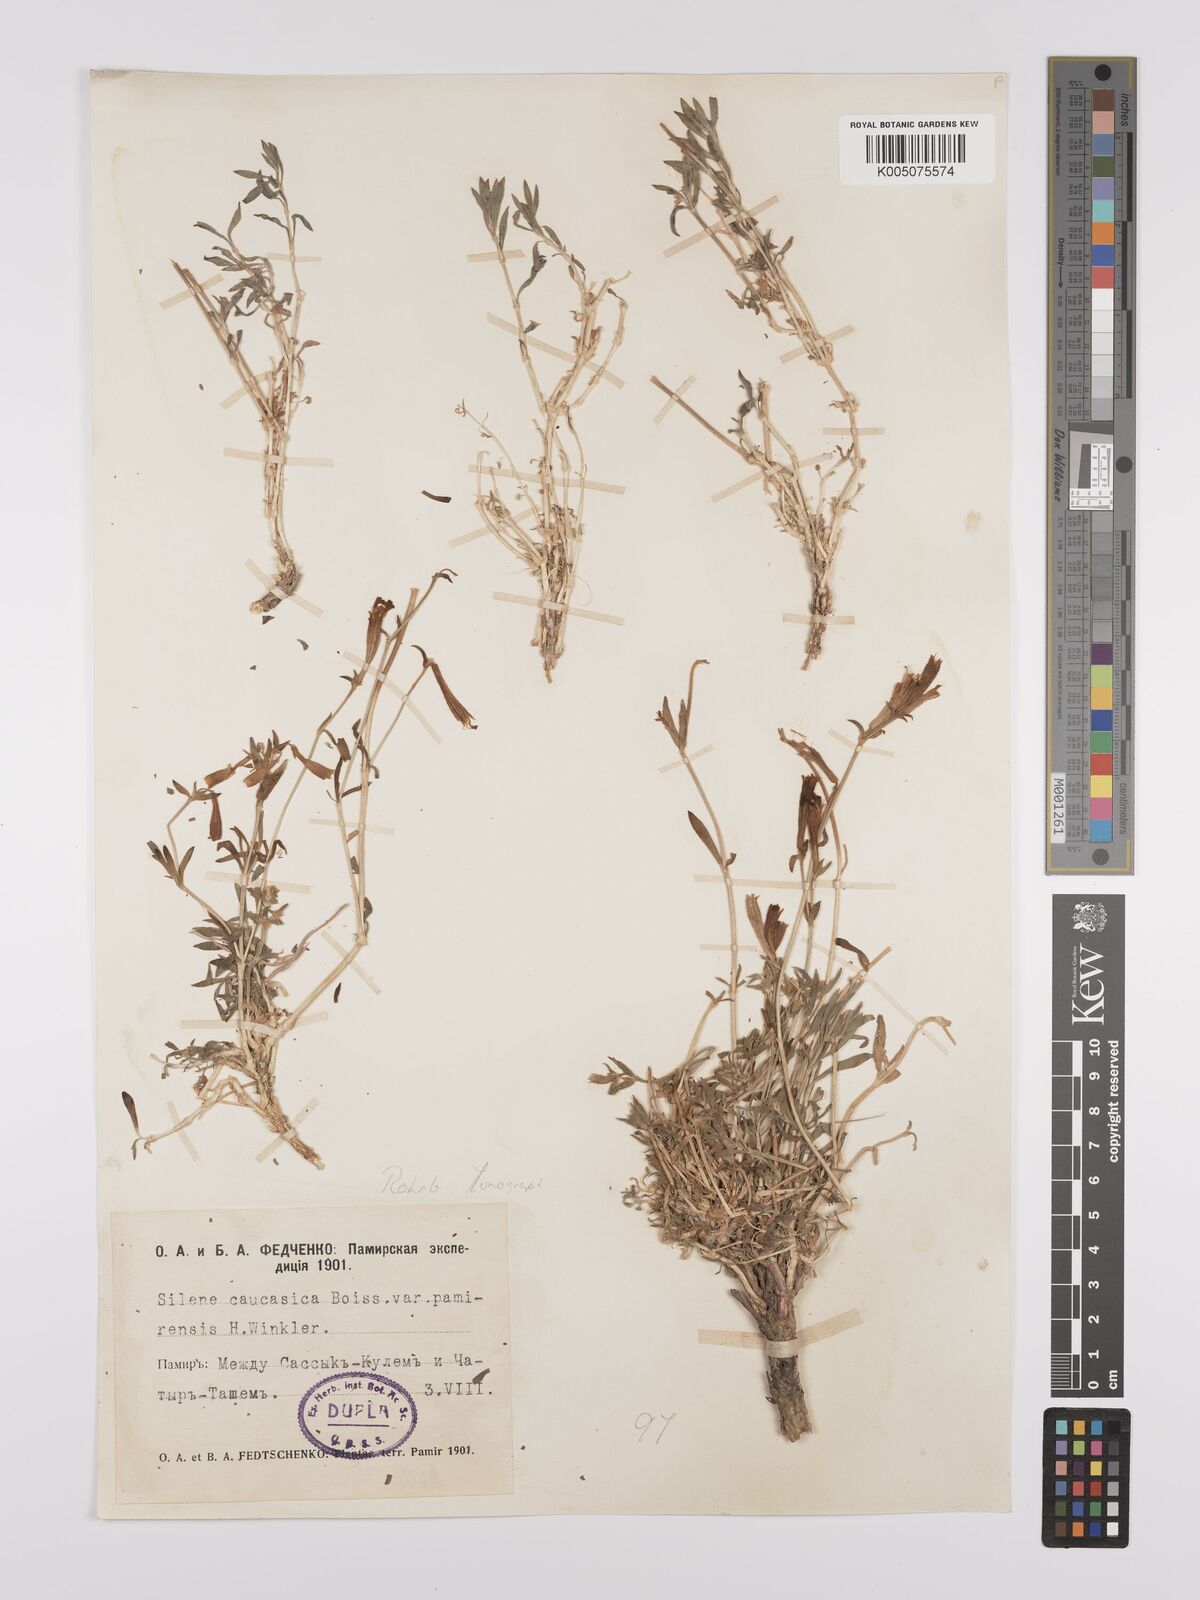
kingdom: Plantae
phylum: Tracheophyta
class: Magnoliopsida
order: Caryophyllales
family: Caryophyllaceae
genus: Silene
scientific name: Silene caucasica
